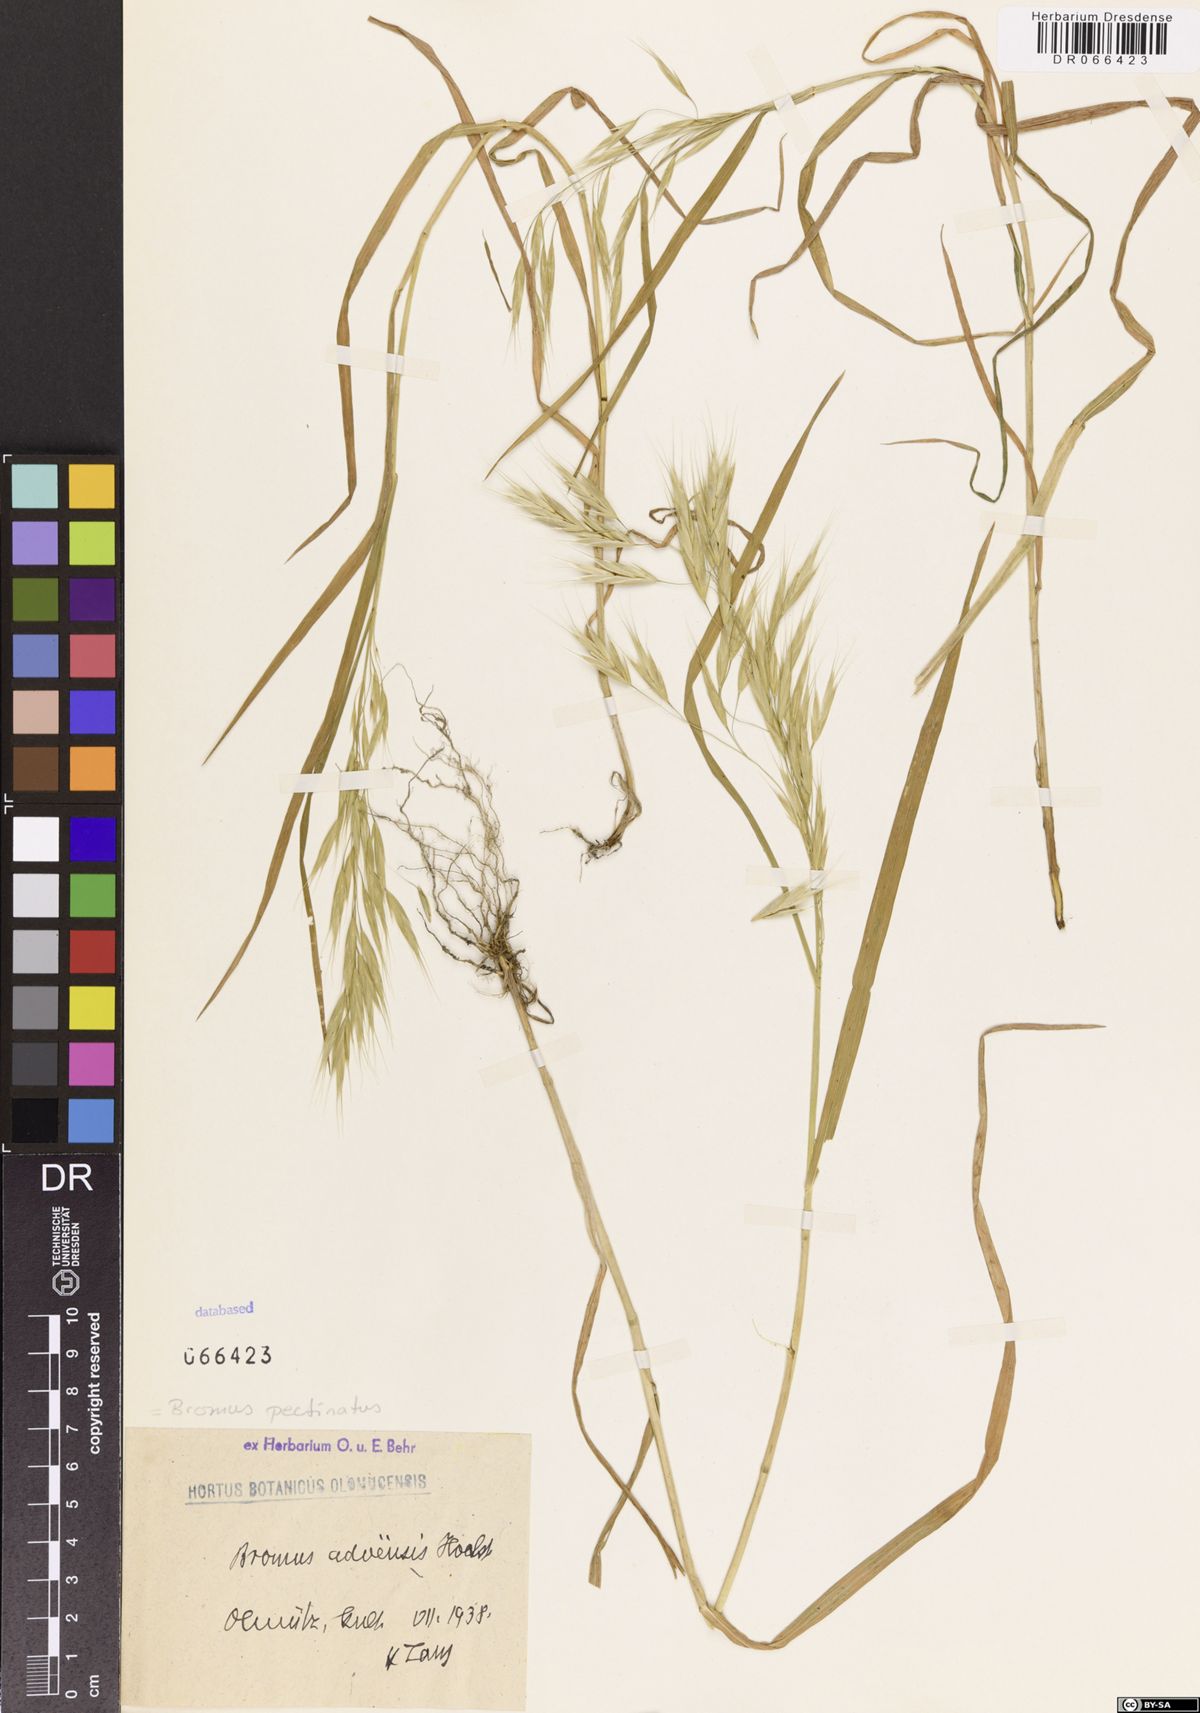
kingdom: Plantae
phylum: Tracheophyta
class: Liliopsida
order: Poales
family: Poaceae
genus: Bromus
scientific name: Bromus pectinatus
